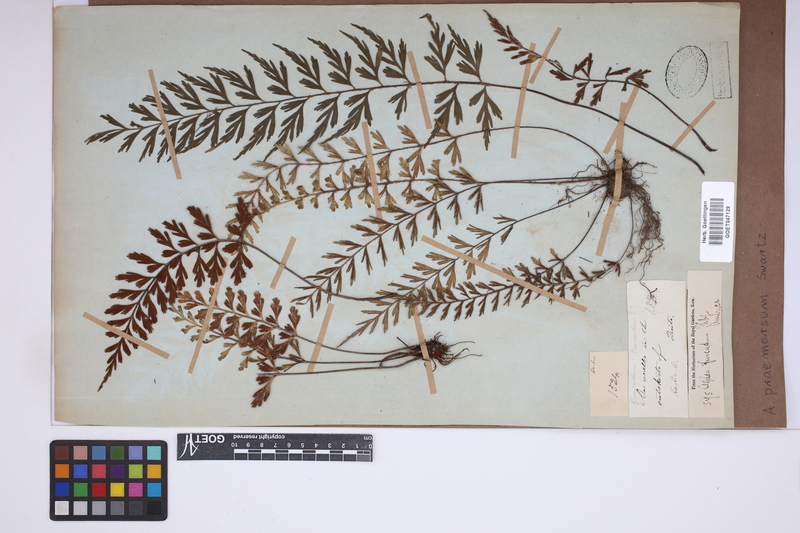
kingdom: Plantae
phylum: Tracheophyta
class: Polypodiopsida
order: Polypodiales
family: Aspleniaceae
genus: Asplenium
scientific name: Asplenium praemorsum
